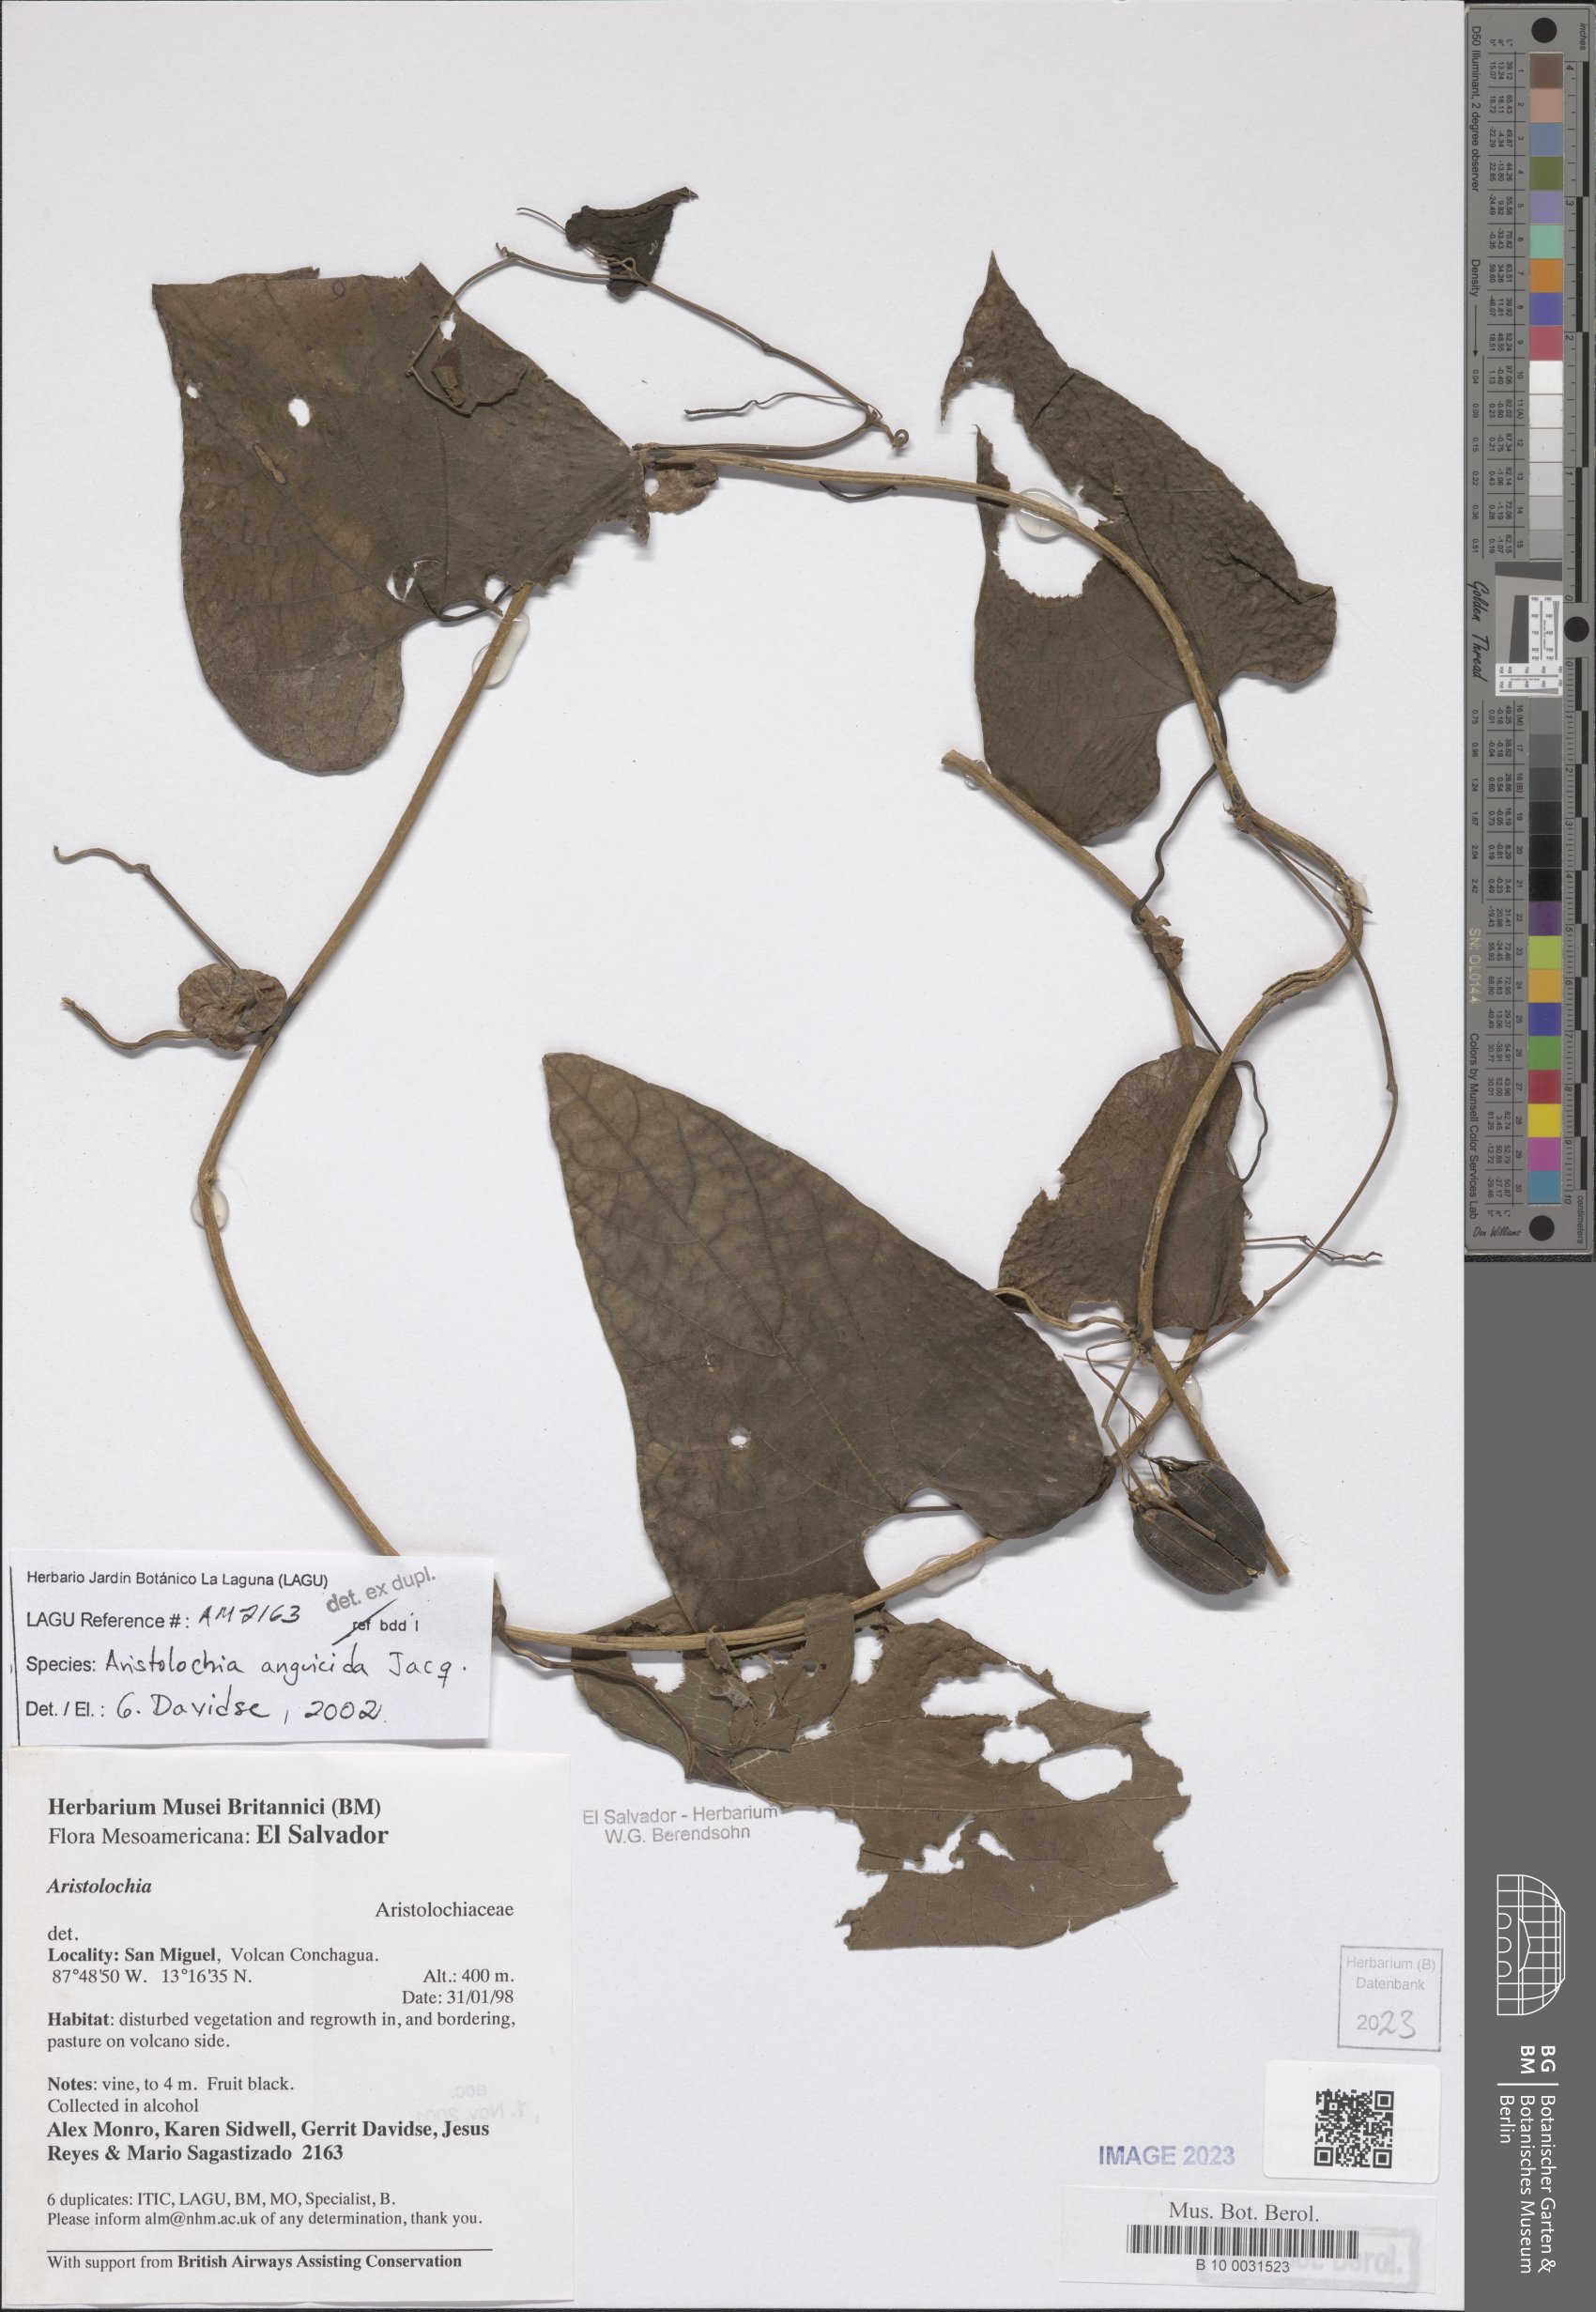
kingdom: Plantae
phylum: Tracheophyta
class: Magnoliopsida
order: Piperales
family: Aristolochiaceae
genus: Aristolochia
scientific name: Aristolochia anguicida
